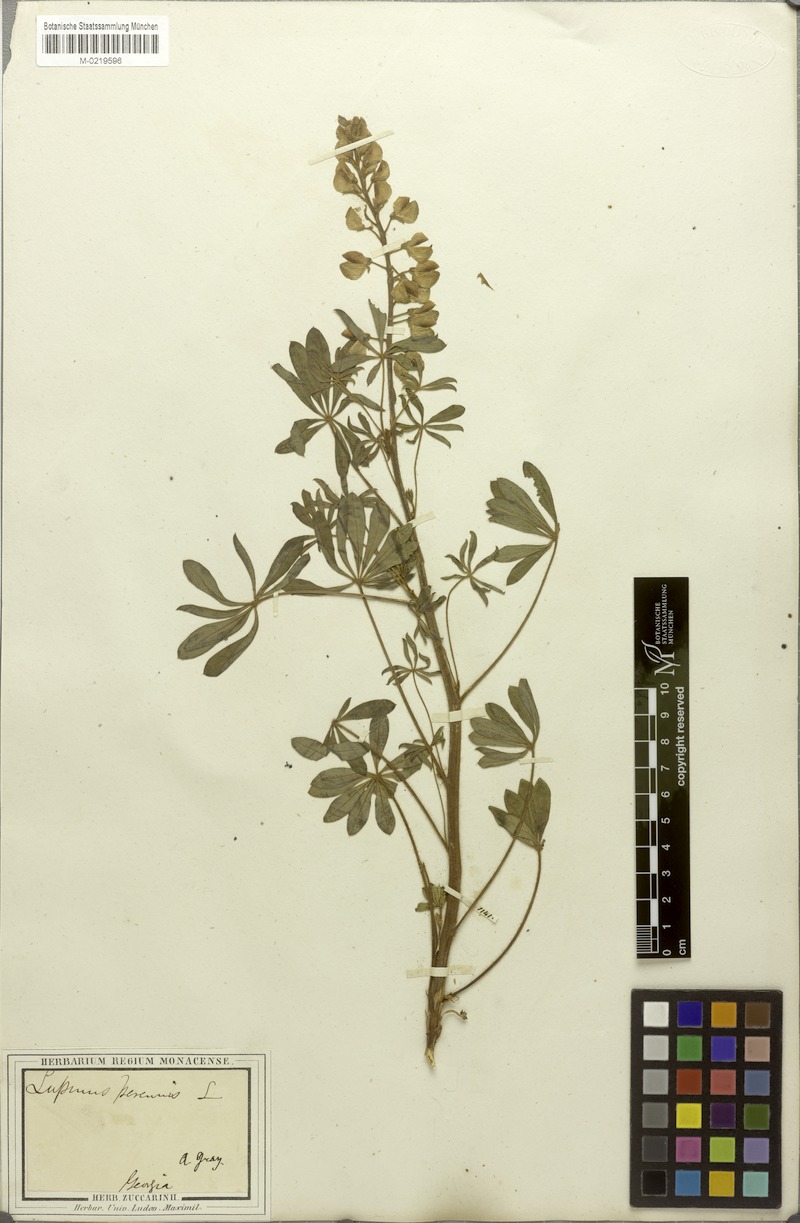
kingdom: Plantae
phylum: Tracheophyta
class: Magnoliopsida
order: Fabales
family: Fabaceae
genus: Lupinus
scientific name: Lupinus perennis
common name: Sundial lupine
